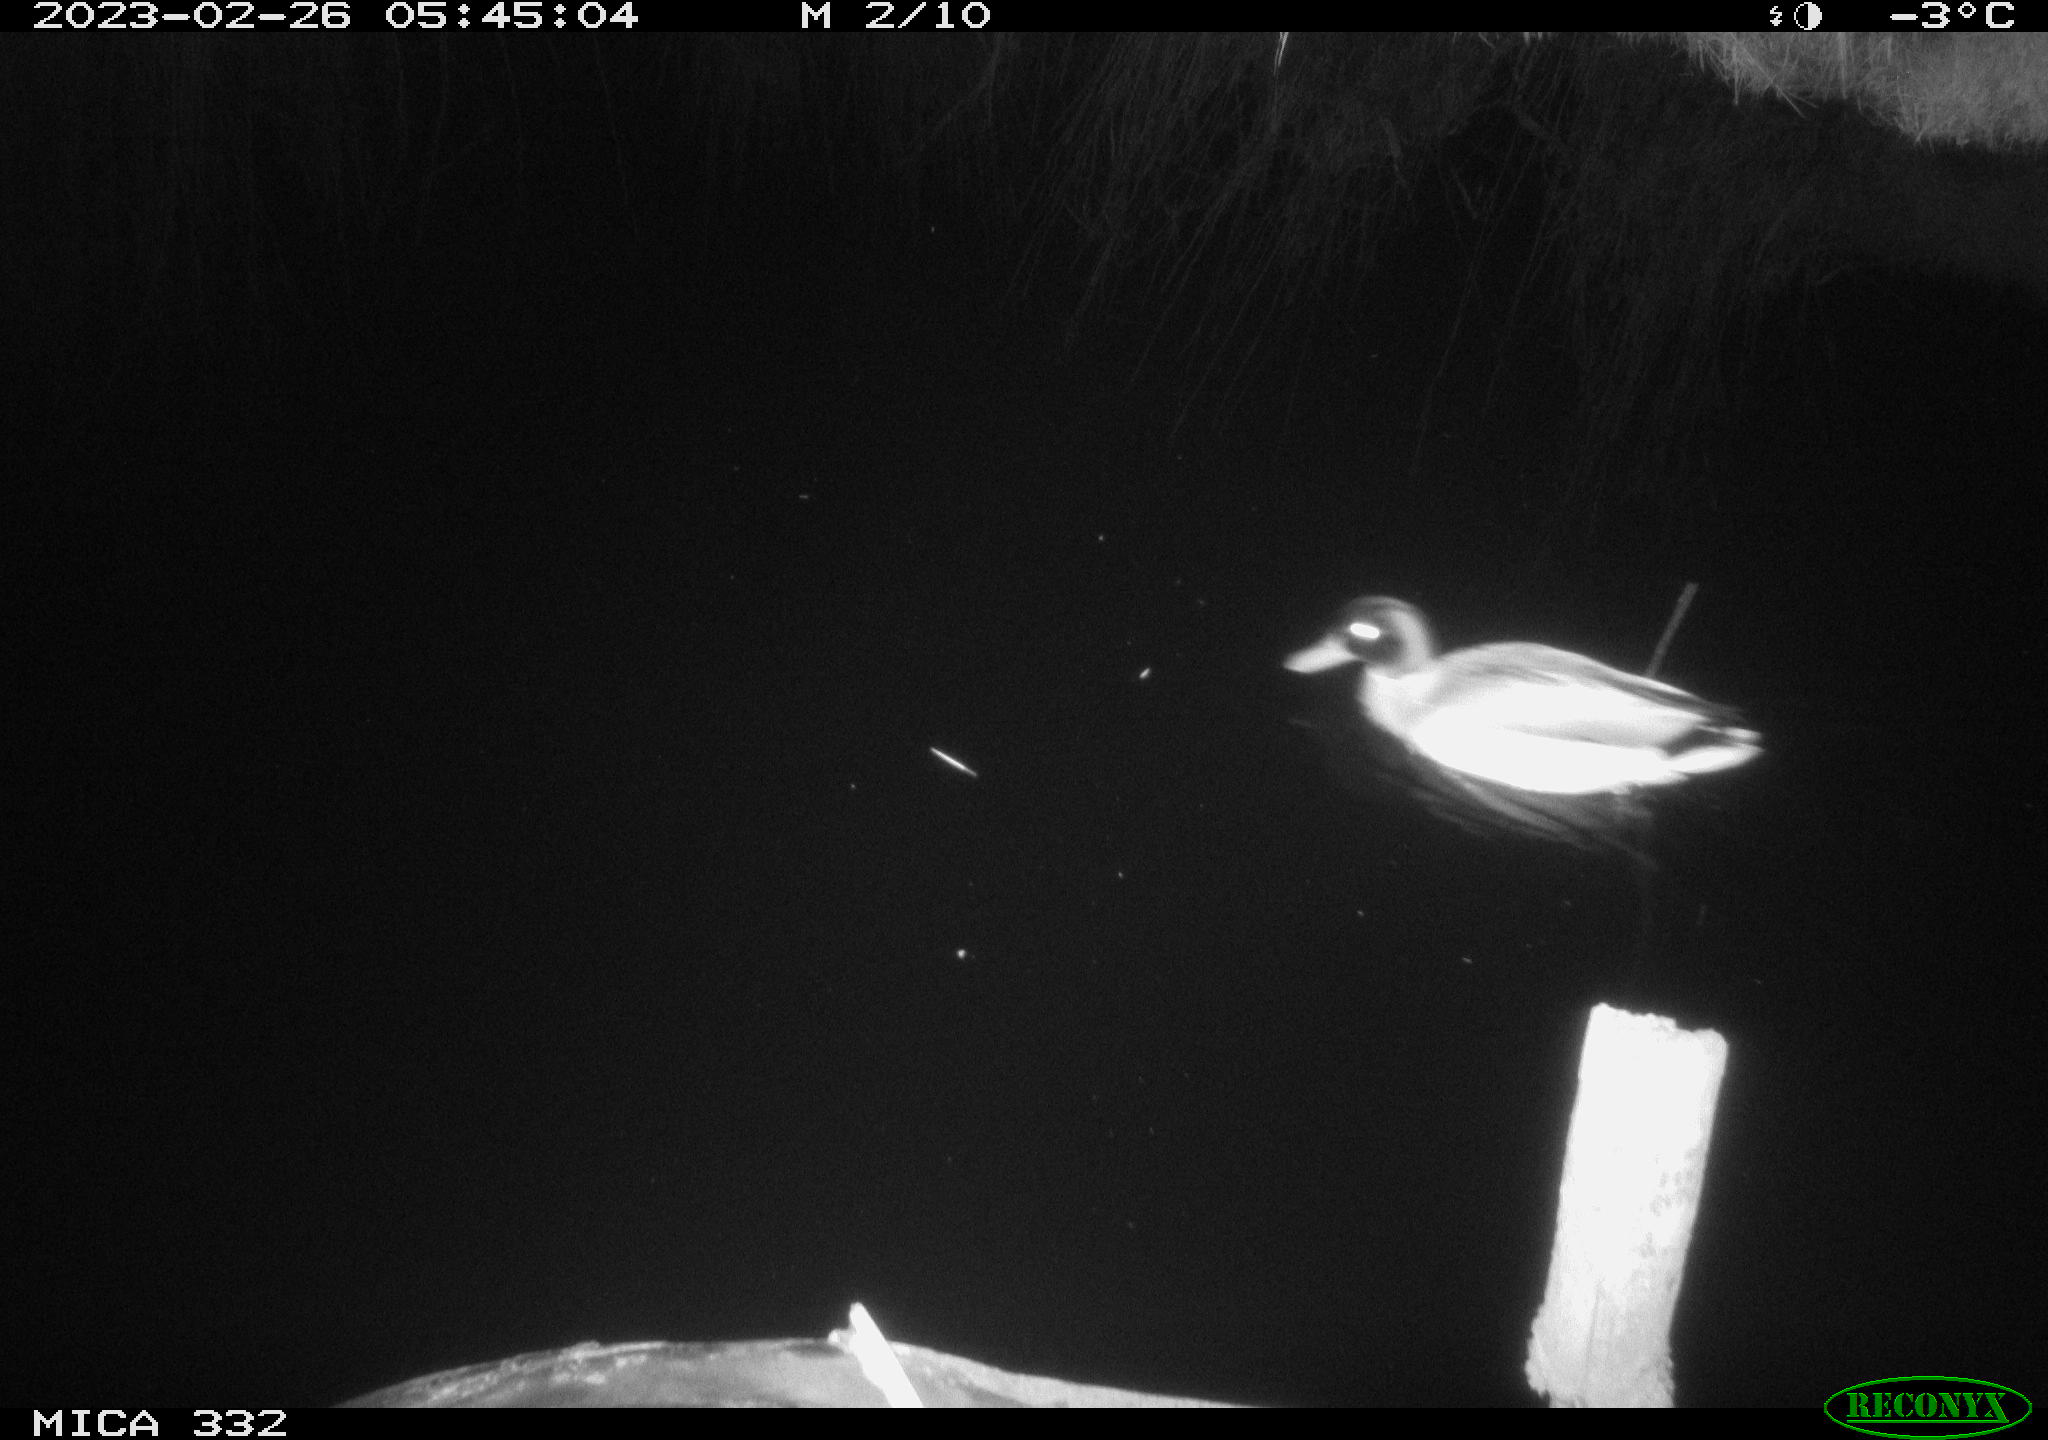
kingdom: Animalia
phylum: Chordata
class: Aves
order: Anseriformes
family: Anatidae
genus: Anas
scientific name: Anas
